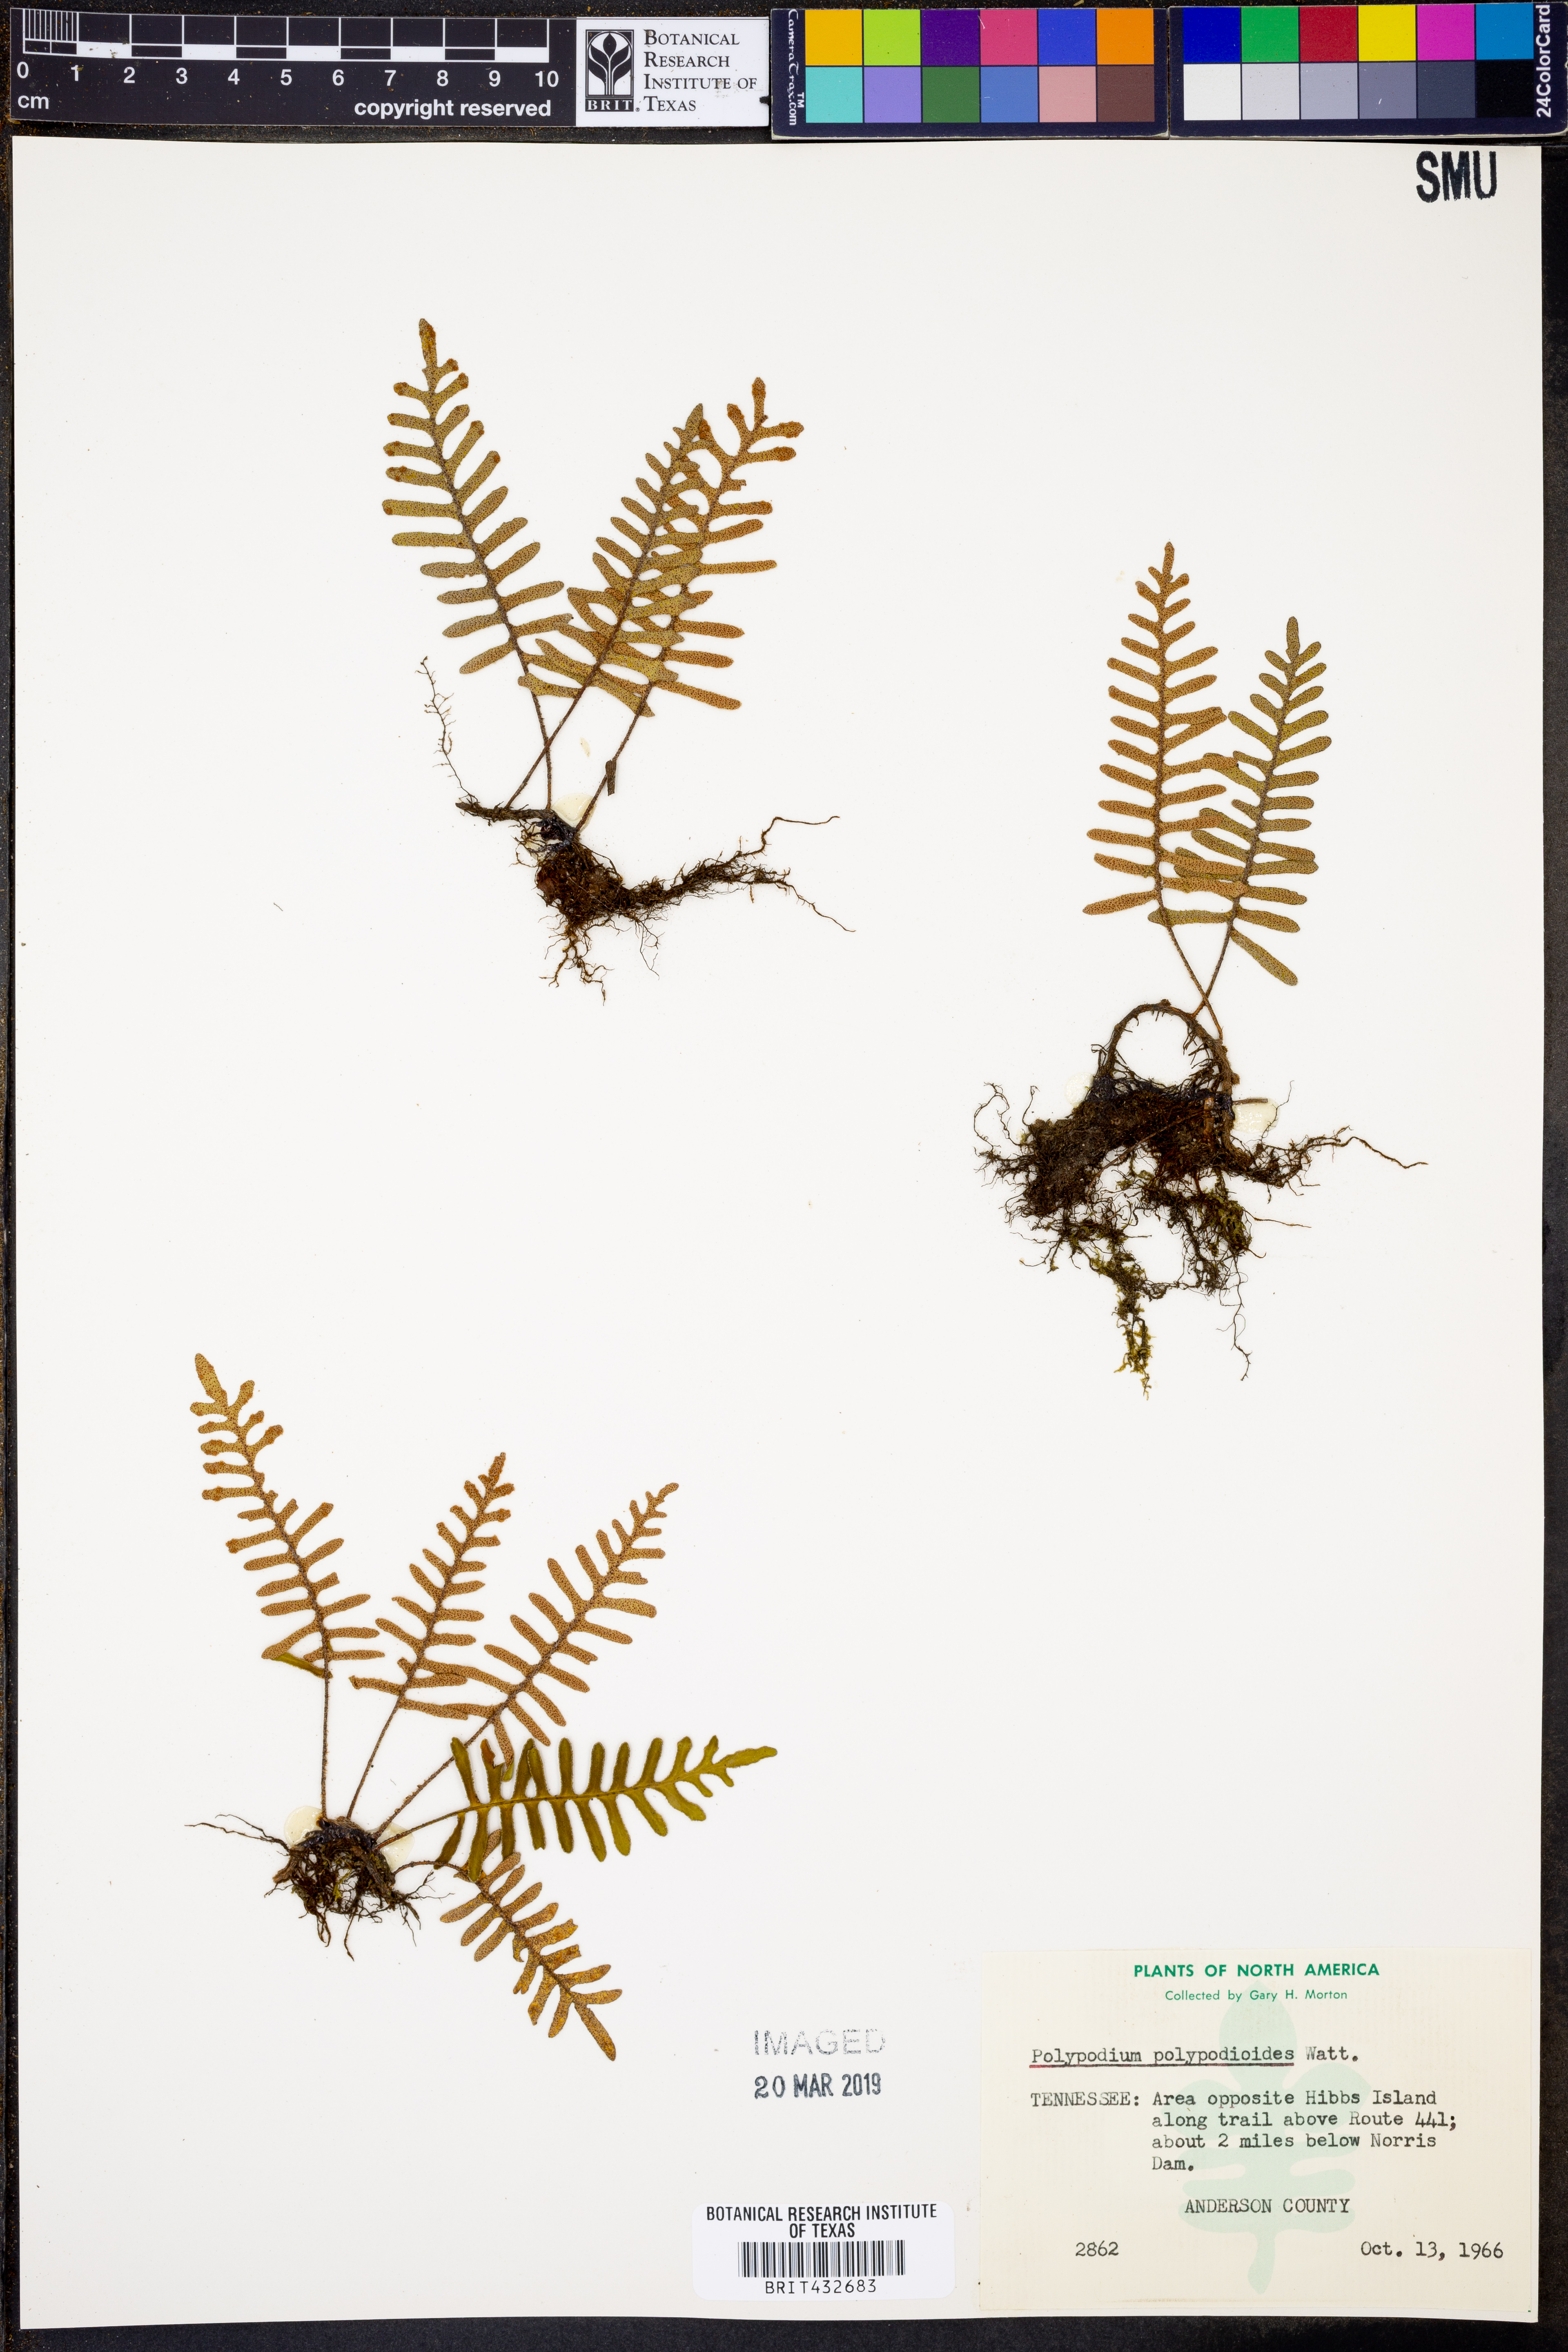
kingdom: Plantae
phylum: Tracheophyta
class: Polypodiopsida
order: Polypodiales
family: Polypodiaceae
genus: Pleopeltis
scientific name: Pleopeltis polypodioides
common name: Resurrection fern
